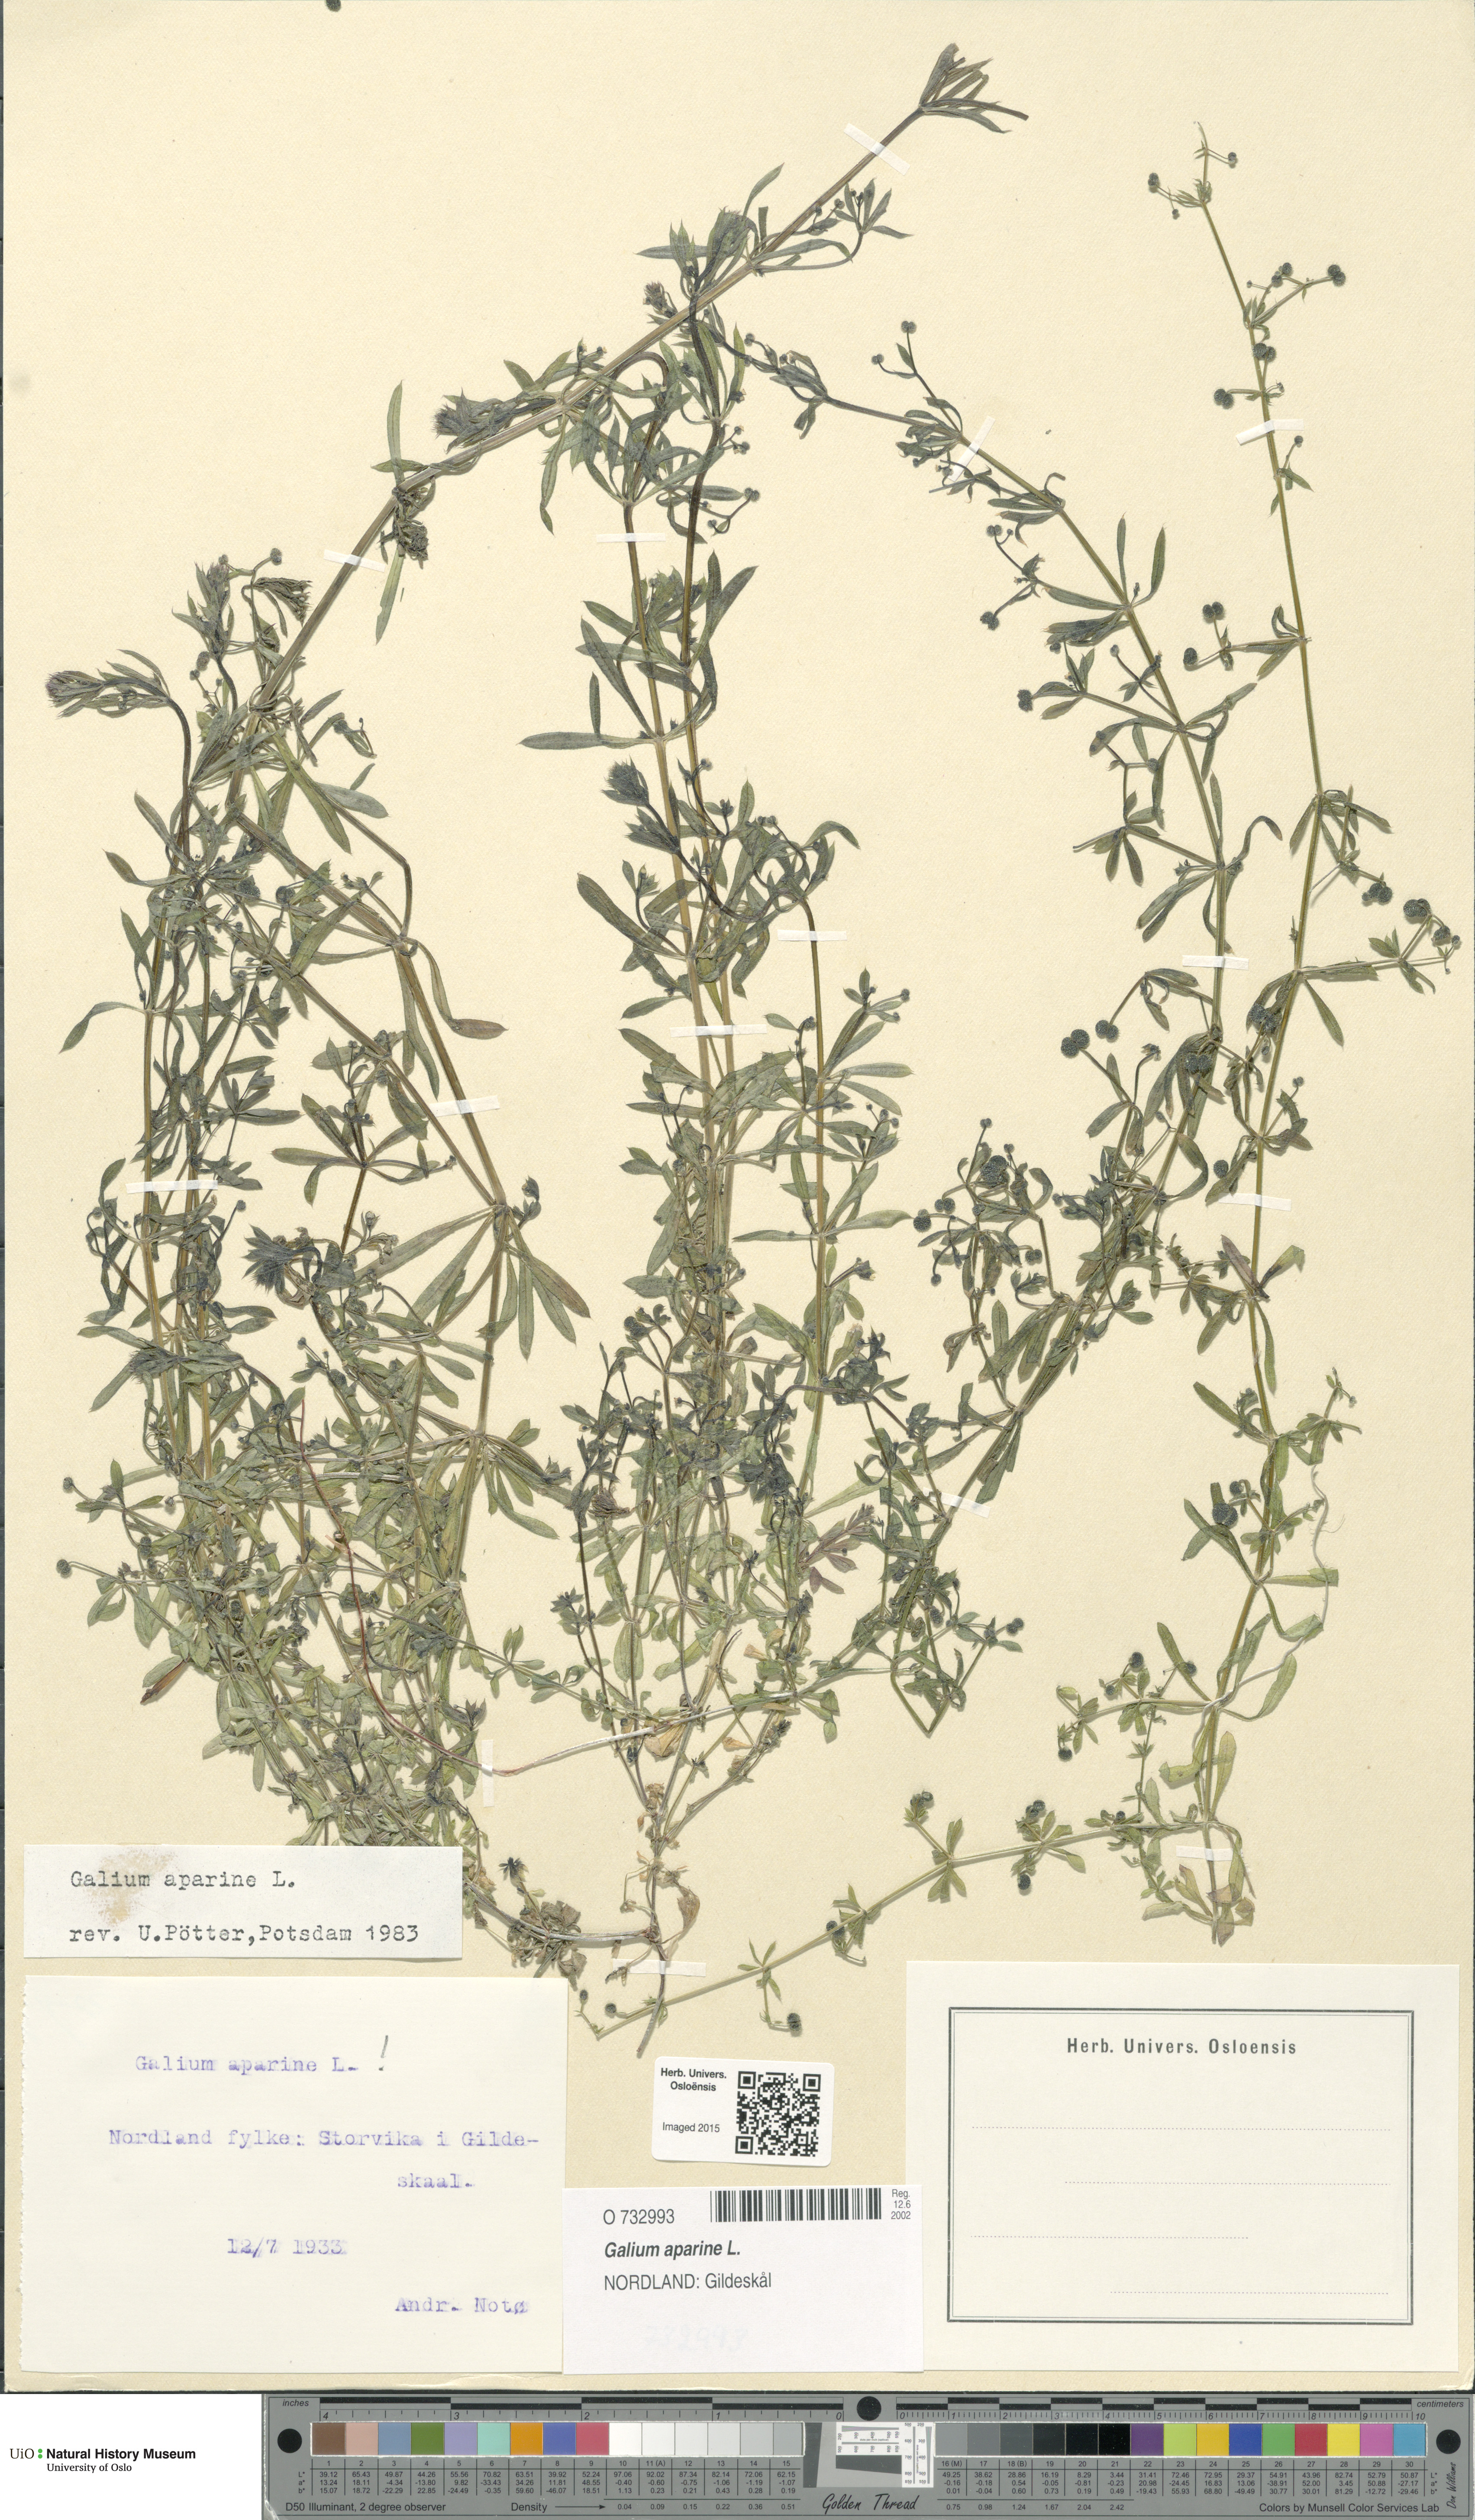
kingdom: Plantae
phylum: Tracheophyta
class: Magnoliopsida
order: Gentianales
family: Rubiaceae
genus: Galium
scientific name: Galium aparine
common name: Cleavers
